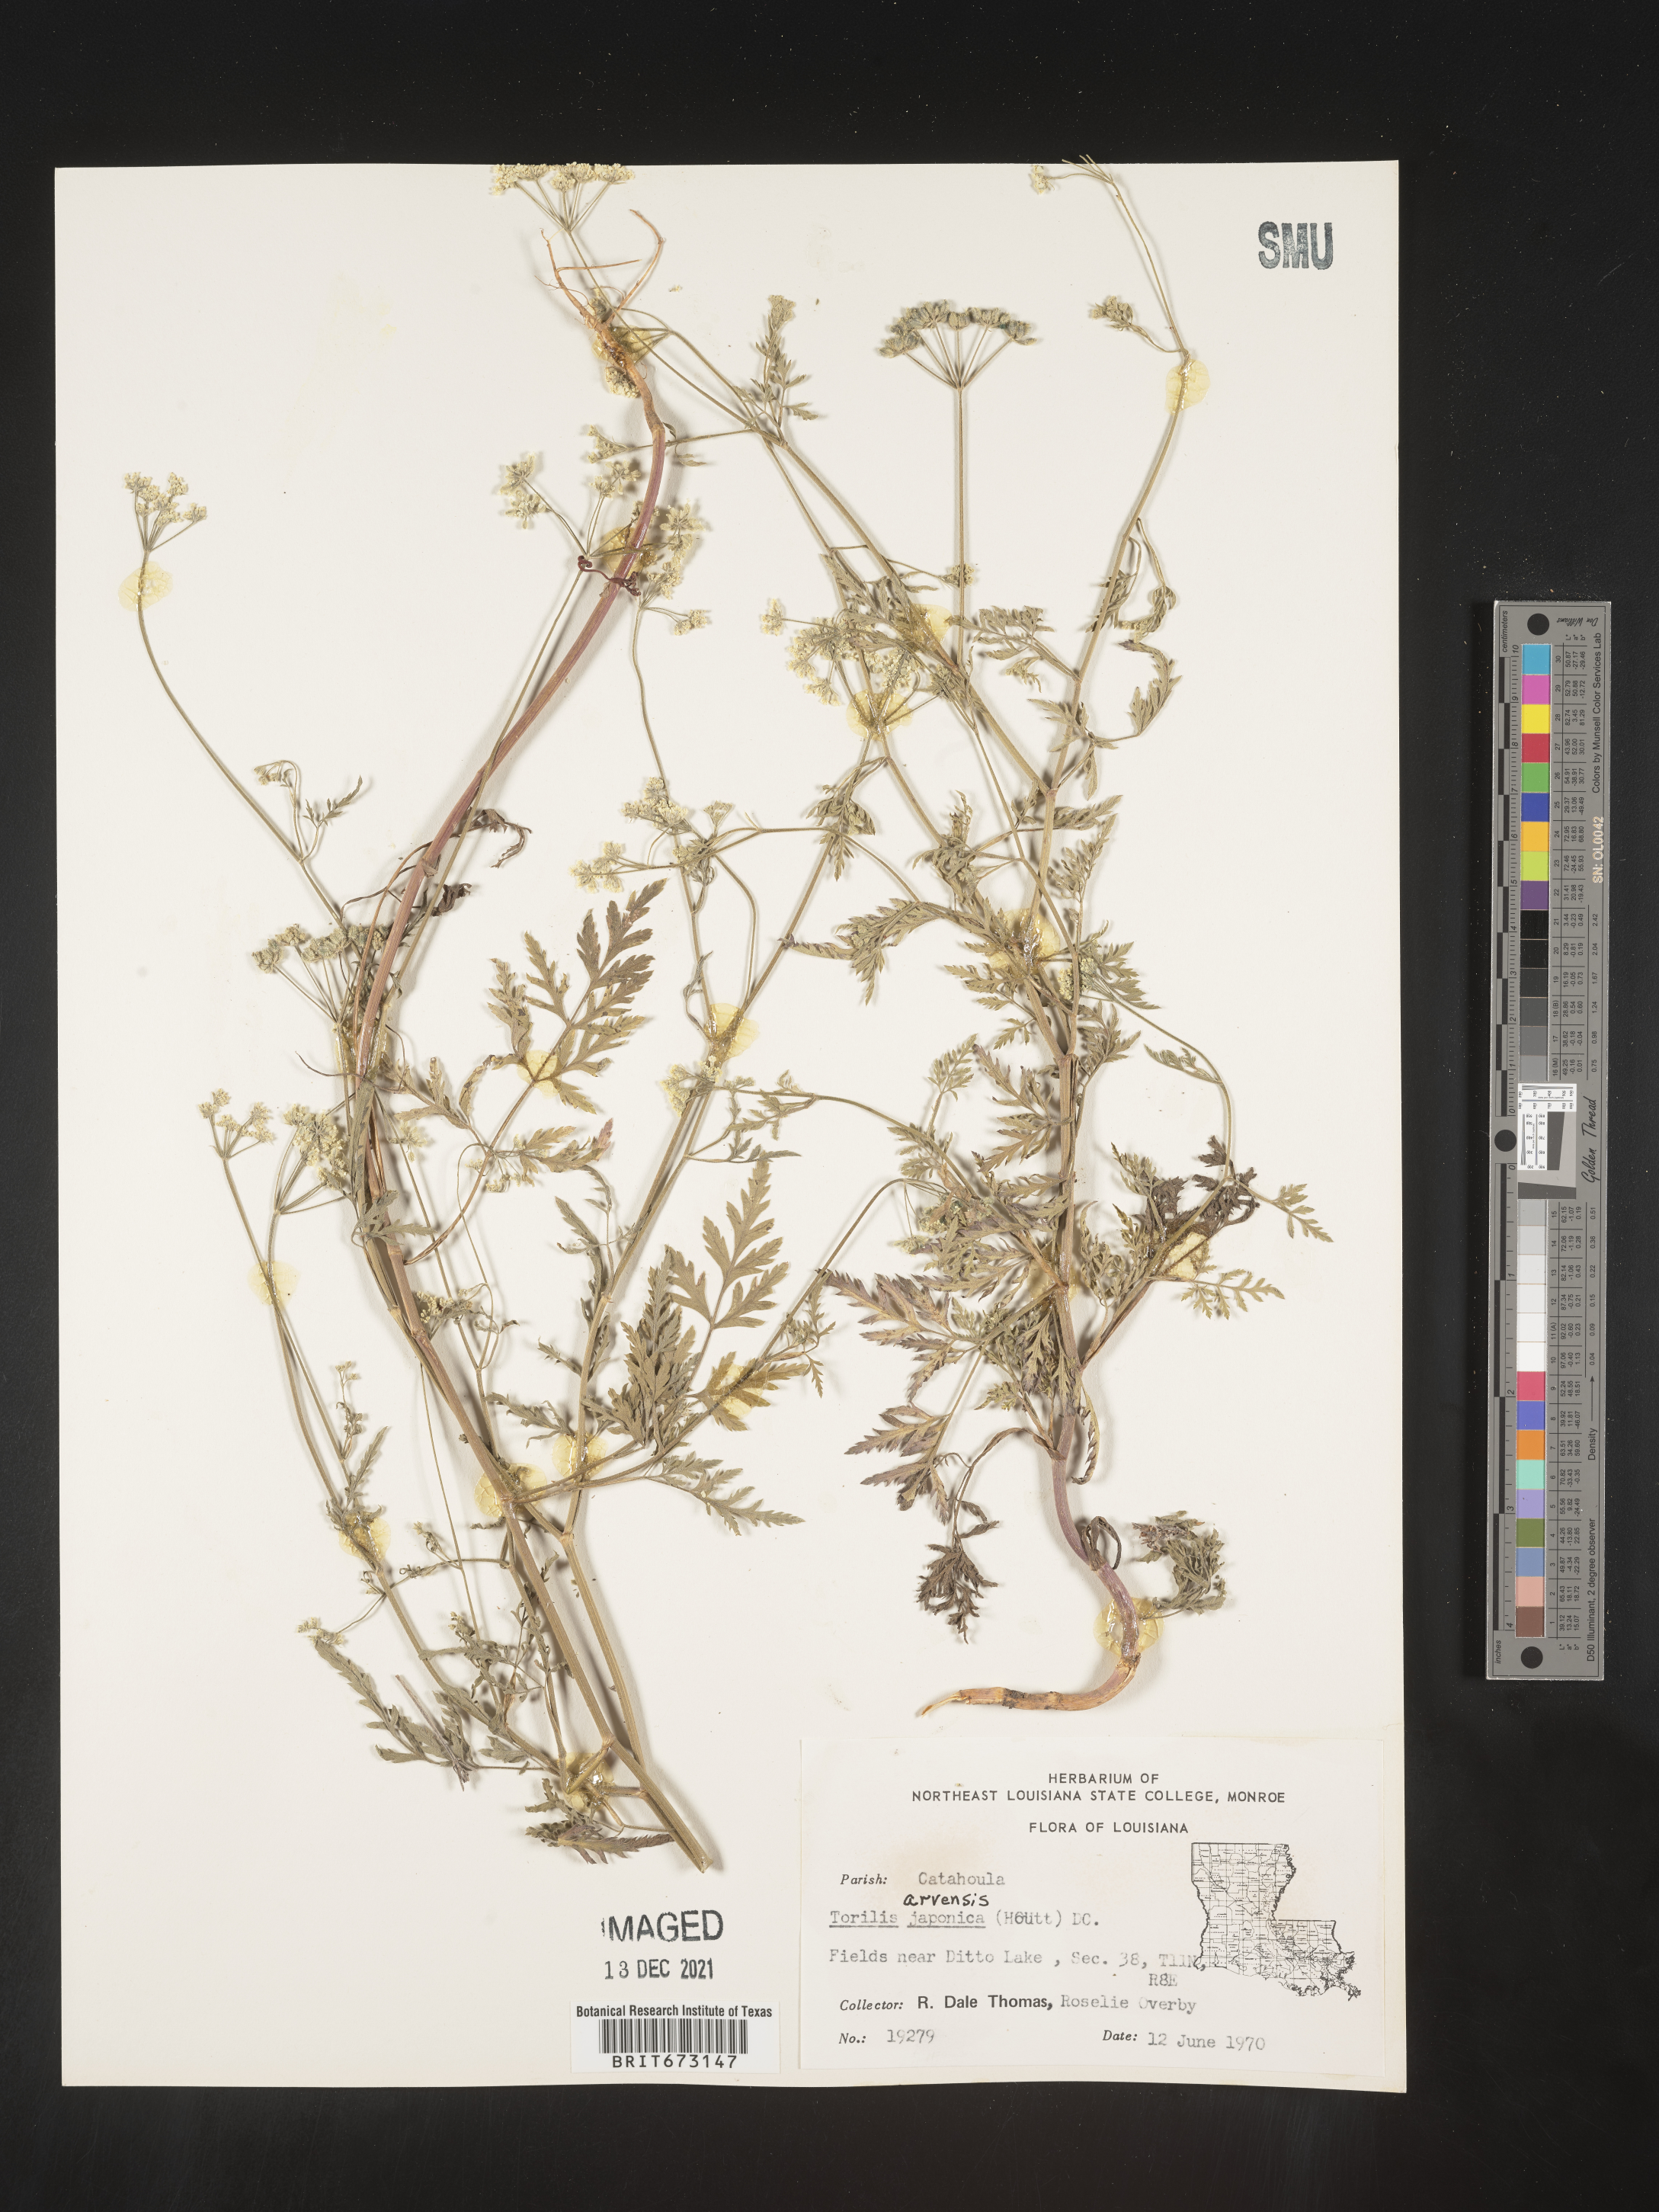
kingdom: Plantae
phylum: Tracheophyta
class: Magnoliopsida
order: Apiales
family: Apiaceae
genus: Torilis
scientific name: Torilis arvensis
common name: Spreading hedge-parsley
